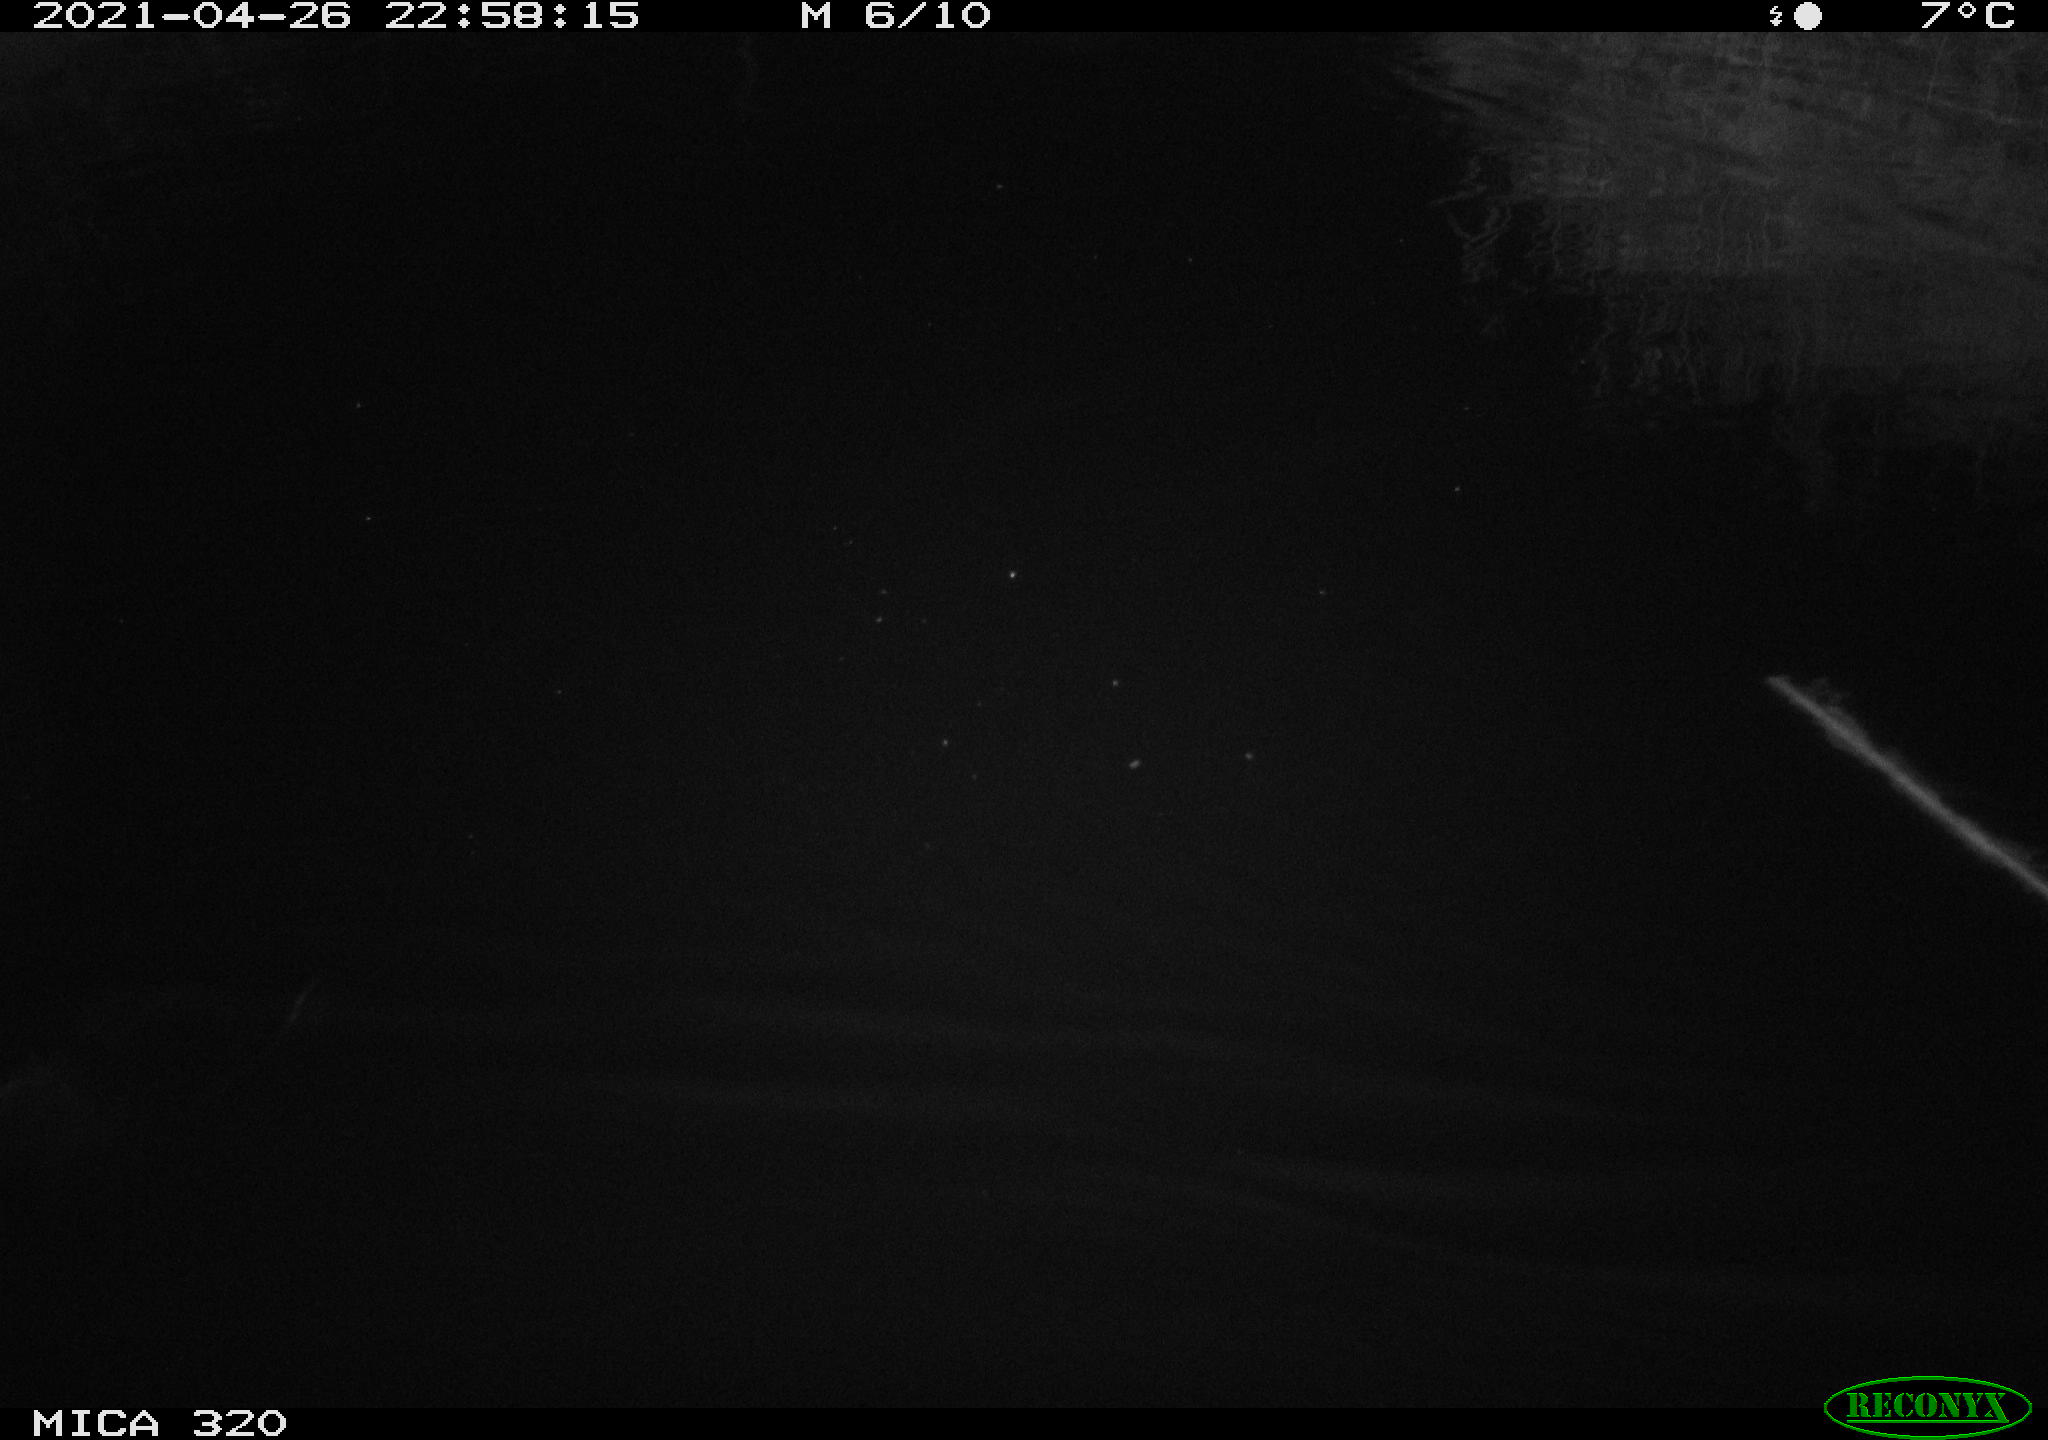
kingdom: Animalia
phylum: Chordata
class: Aves
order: Anseriformes
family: Anatidae
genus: Anas
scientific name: Anas platyrhynchos
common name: Mallard
